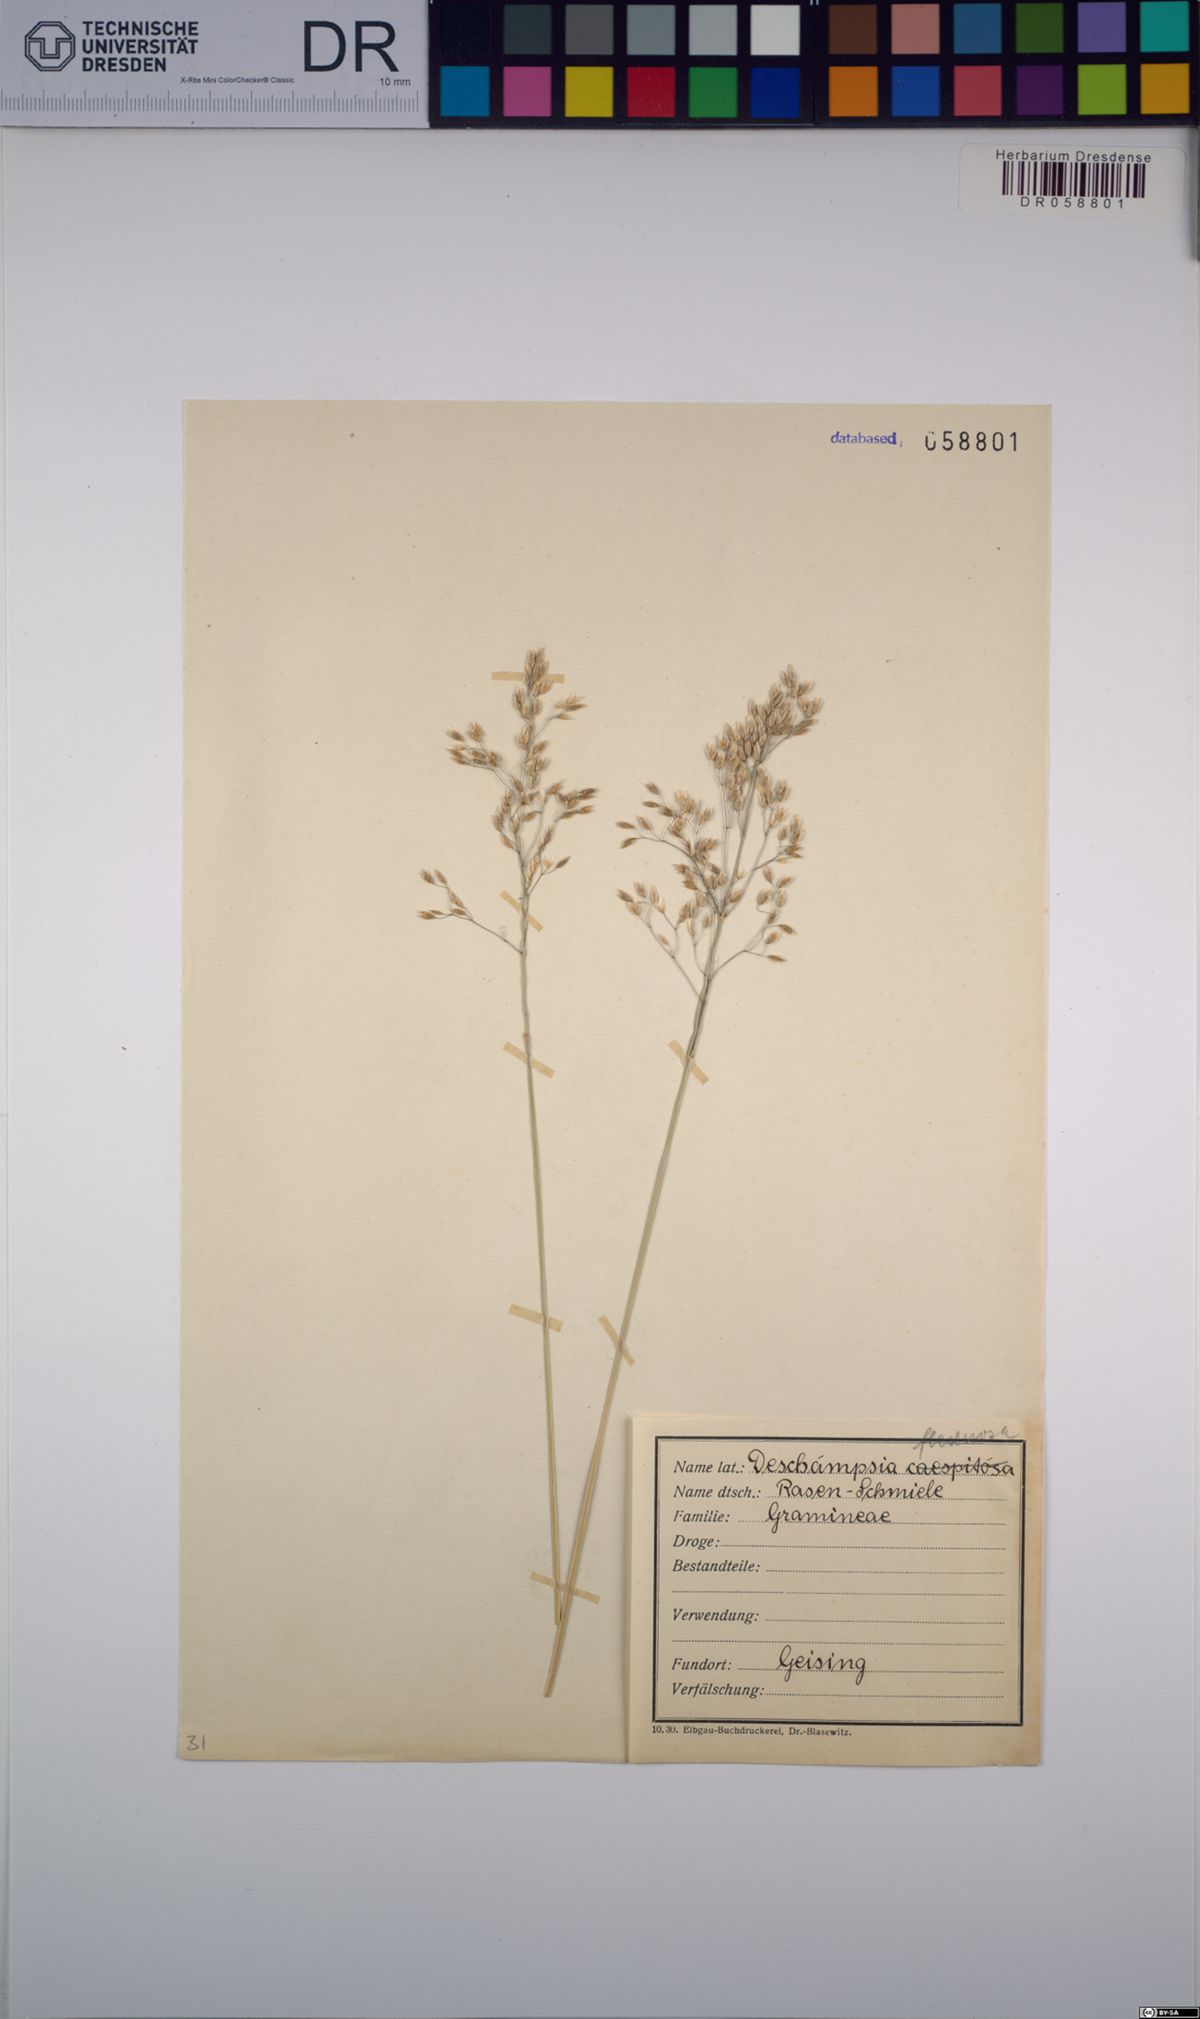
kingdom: Plantae
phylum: Tracheophyta
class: Liliopsida
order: Poales
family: Poaceae
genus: Avenella
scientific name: Avenella flexuosa
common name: Wavy hairgrass
